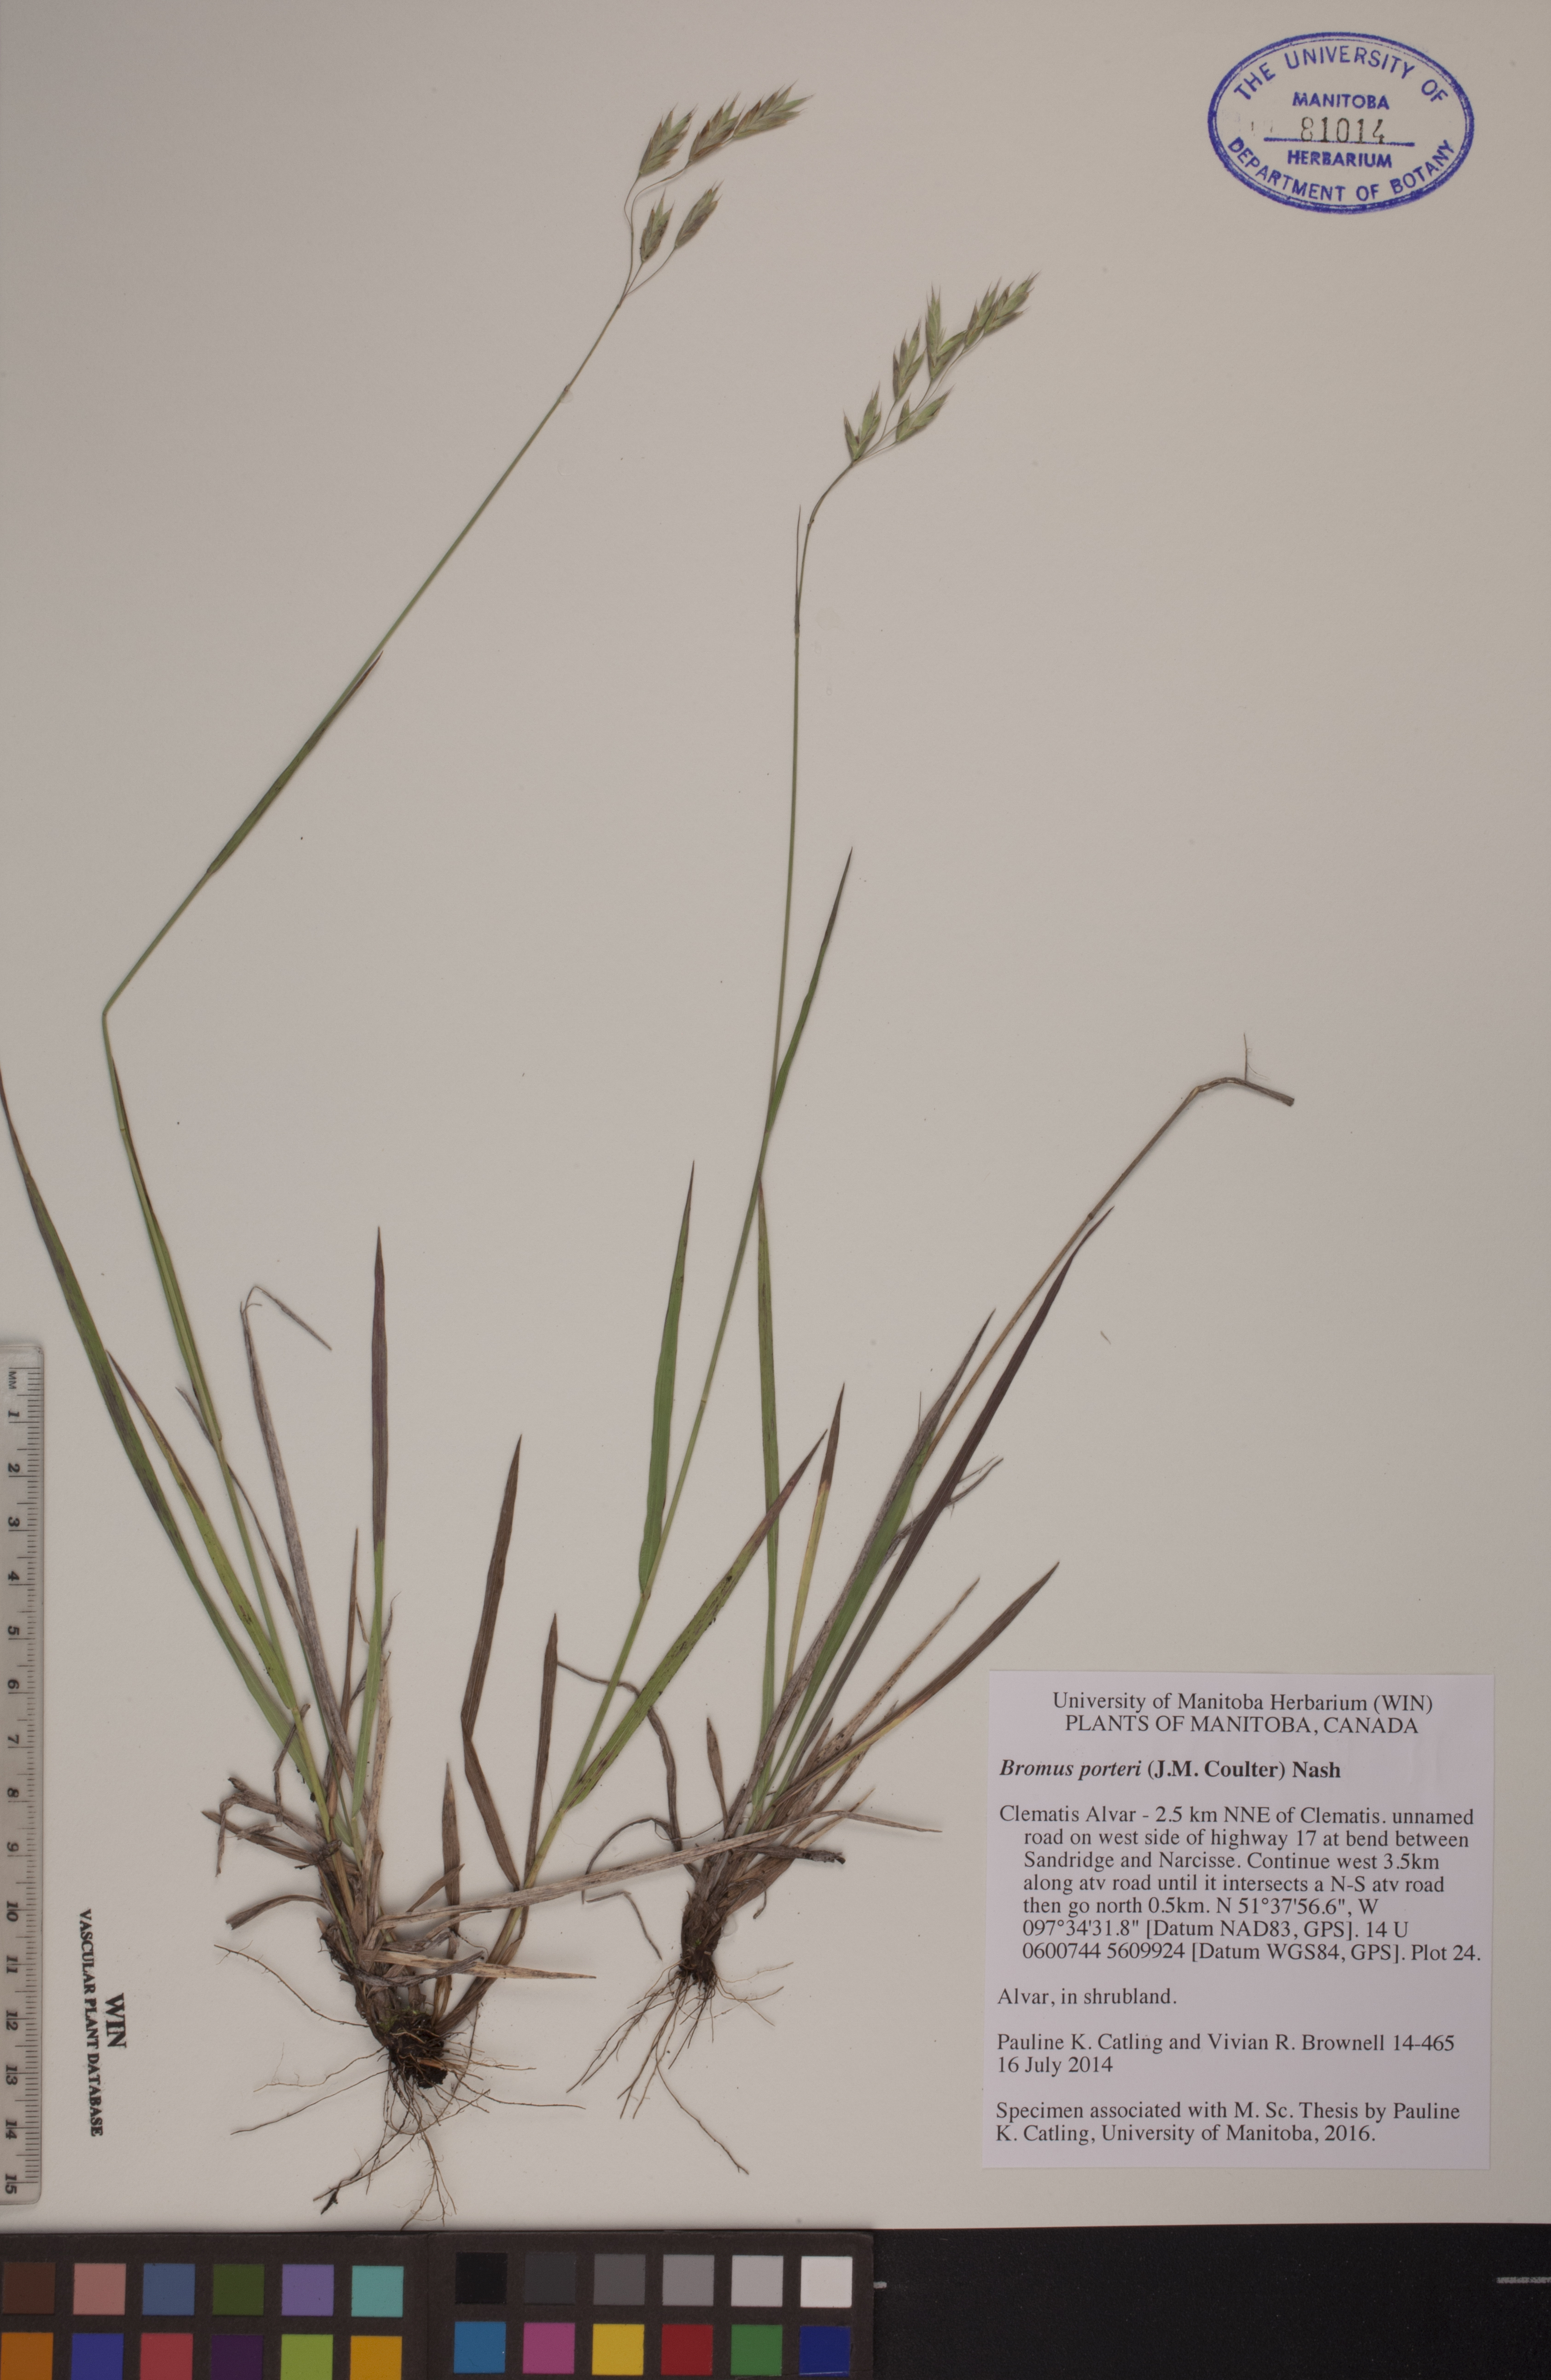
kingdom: Plantae
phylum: Tracheophyta
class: Liliopsida
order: Poales
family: Poaceae
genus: Bromus
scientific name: Bromus porteri
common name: Nodding brome
